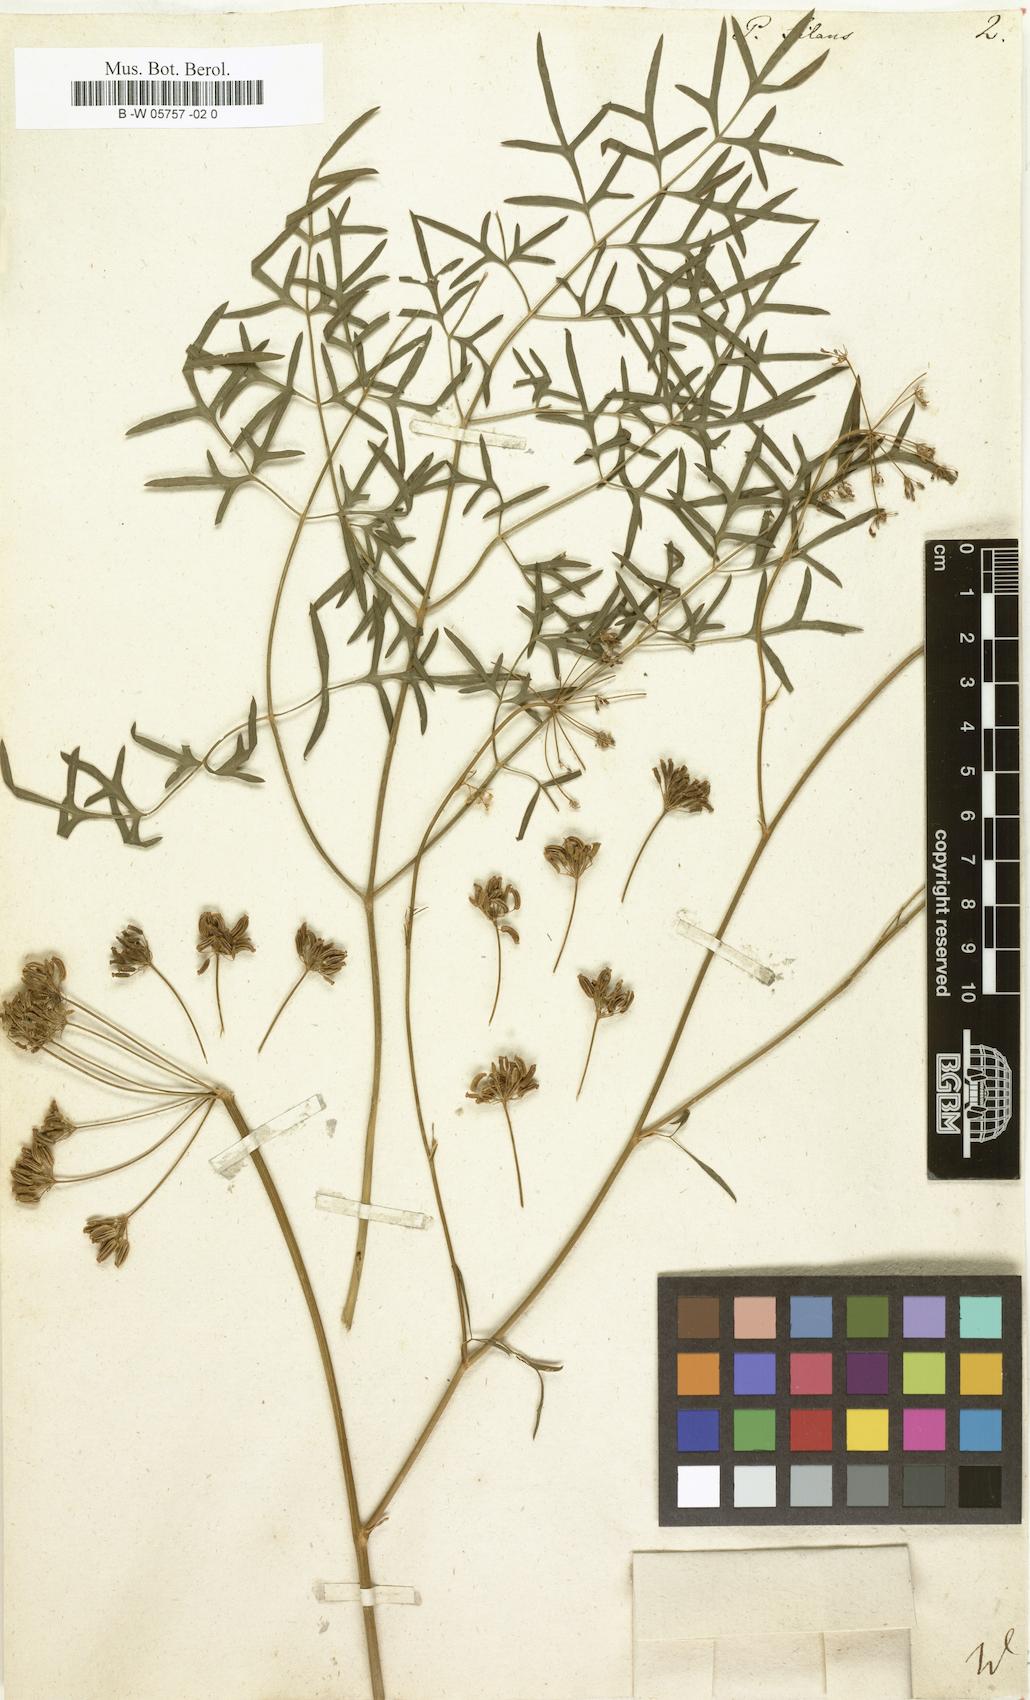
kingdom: Plantae
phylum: Tracheophyta
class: Magnoliopsida
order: Apiales
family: Apiaceae
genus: Silaum
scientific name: Silaum silaus
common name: Pepper-saxifrage
